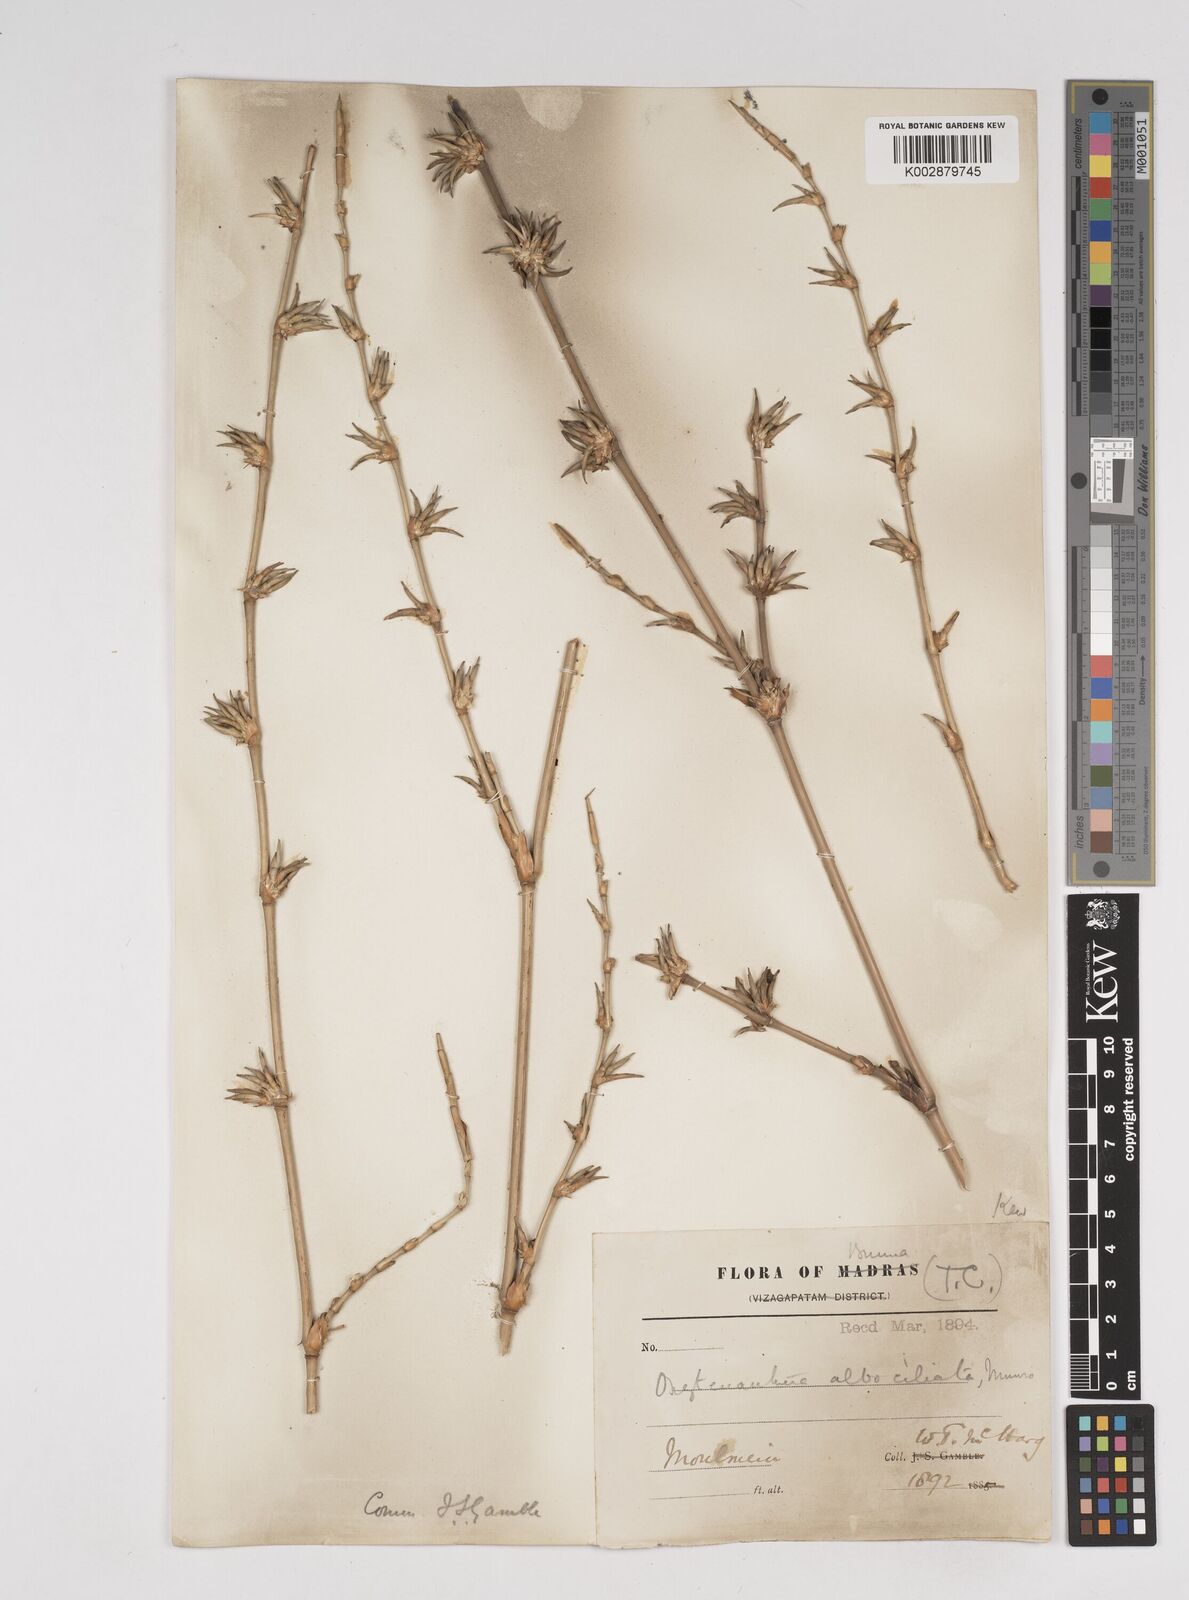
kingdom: Plantae
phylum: Tracheophyta
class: Liliopsida
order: Poales
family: Poaceae
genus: Gigantochloa
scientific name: Gigantochloa albociliata
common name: White-fringe gigantochloa
